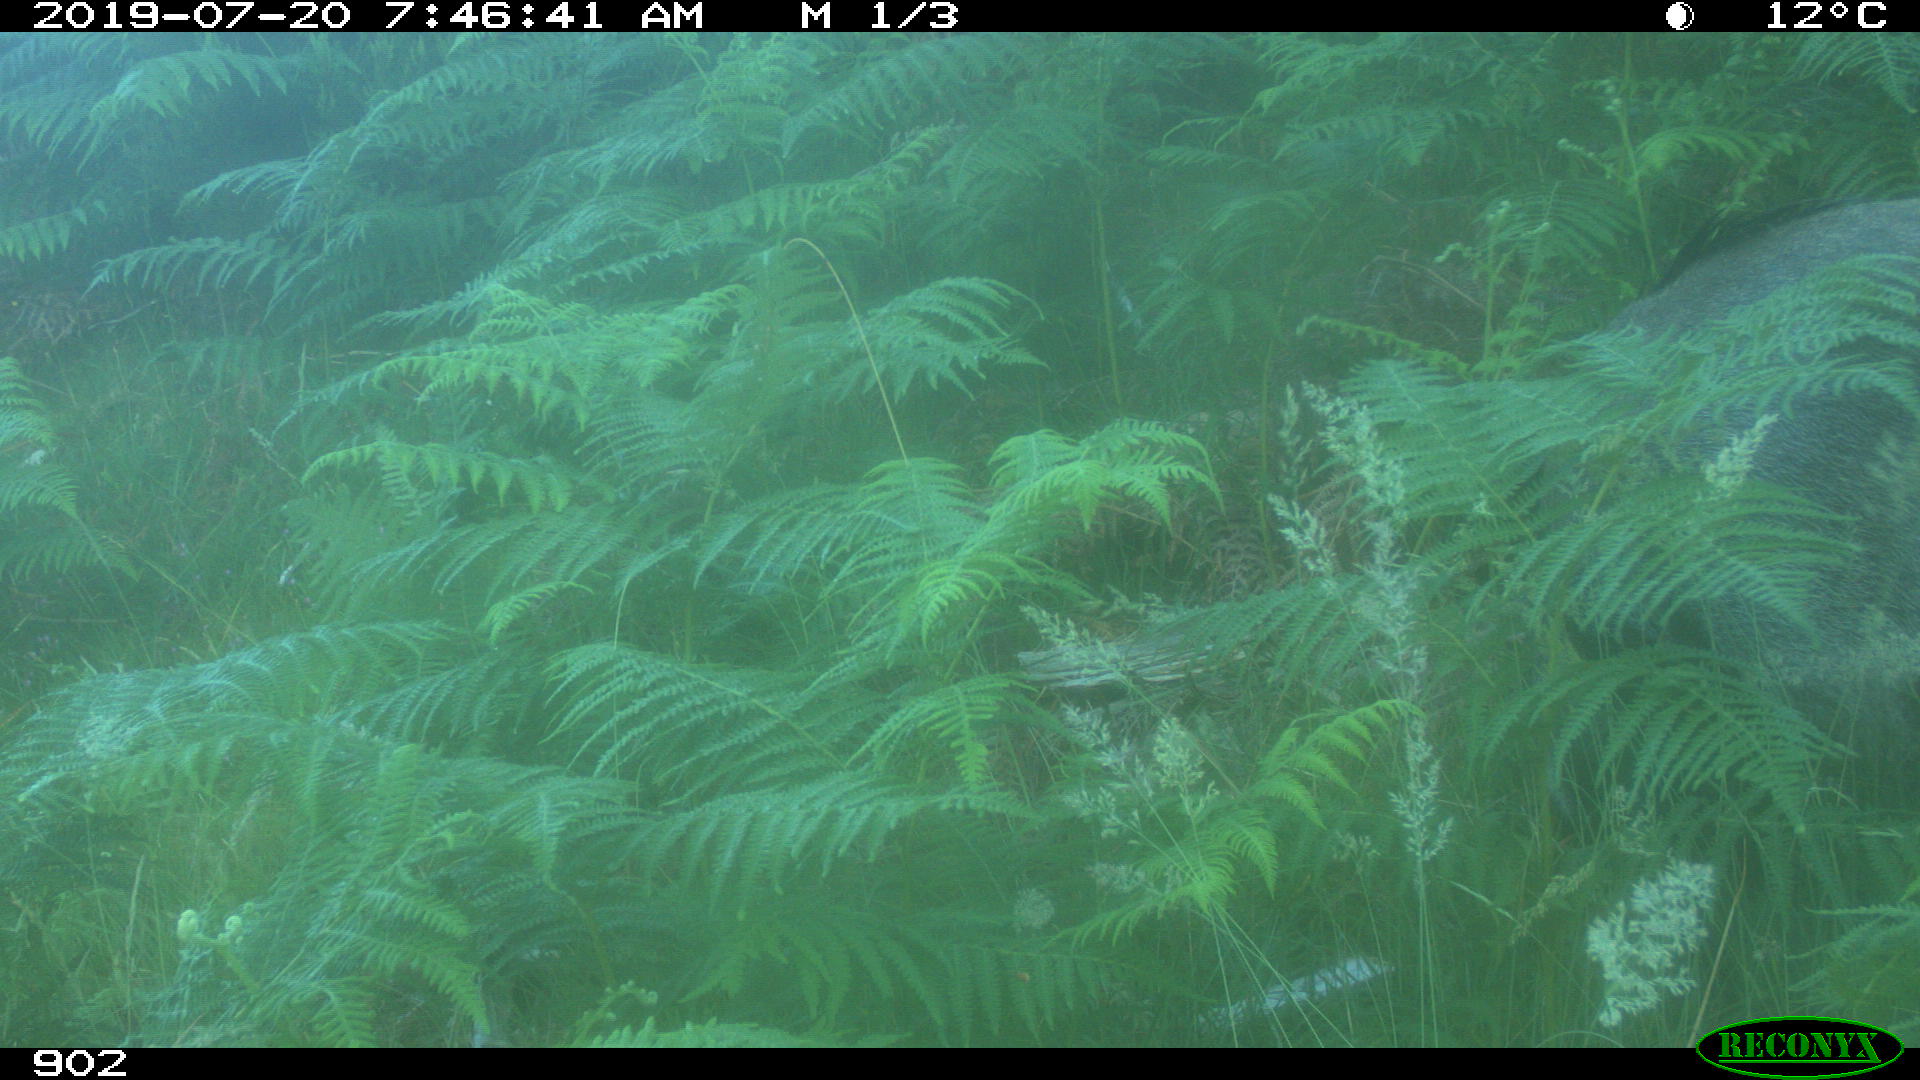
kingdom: Animalia
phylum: Chordata
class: Mammalia
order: Artiodactyla
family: Suidae
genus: Sus
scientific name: Sus scrofa
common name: Wild boar
